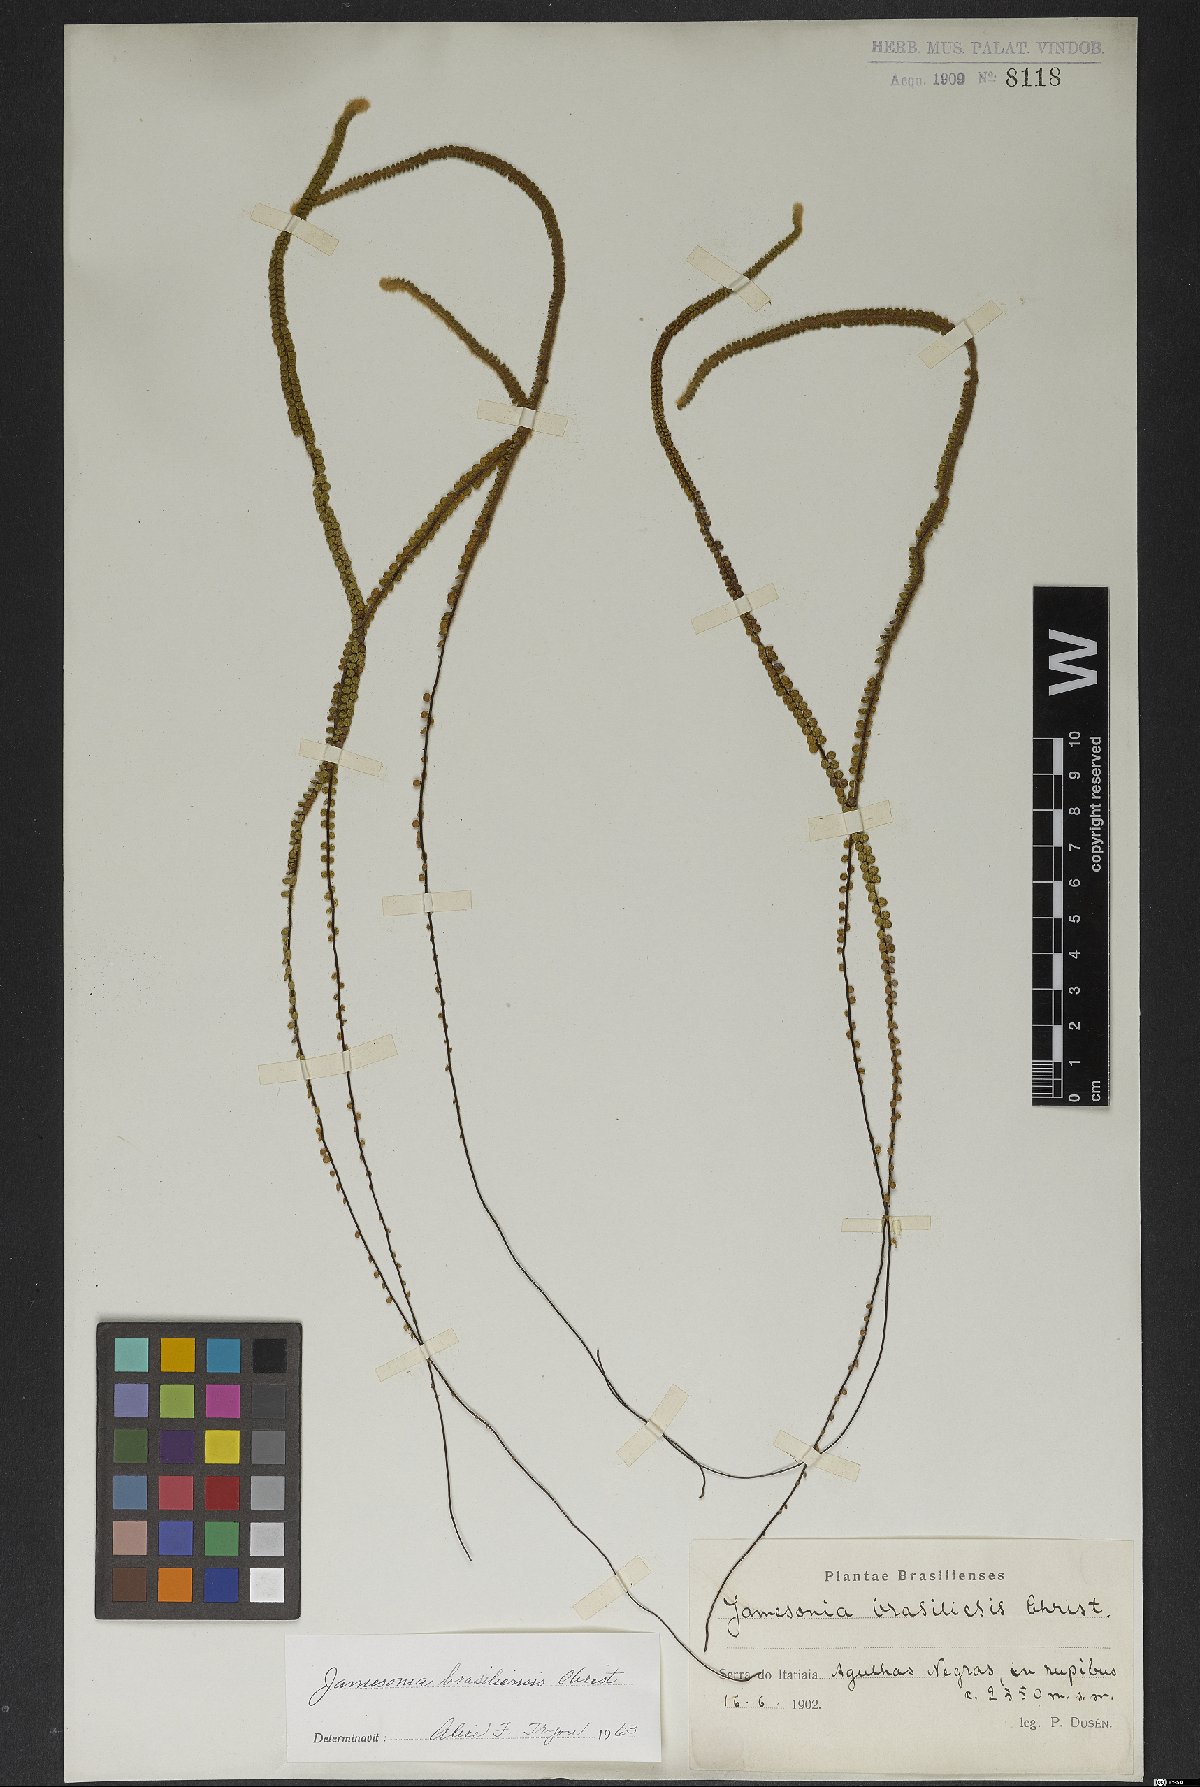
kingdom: Plantae
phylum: Tracheophyta
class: Polypodiopsida
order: Polypodiales
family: Pteridaceae
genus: Jamesonia
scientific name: Jamesonia brasiliensis
